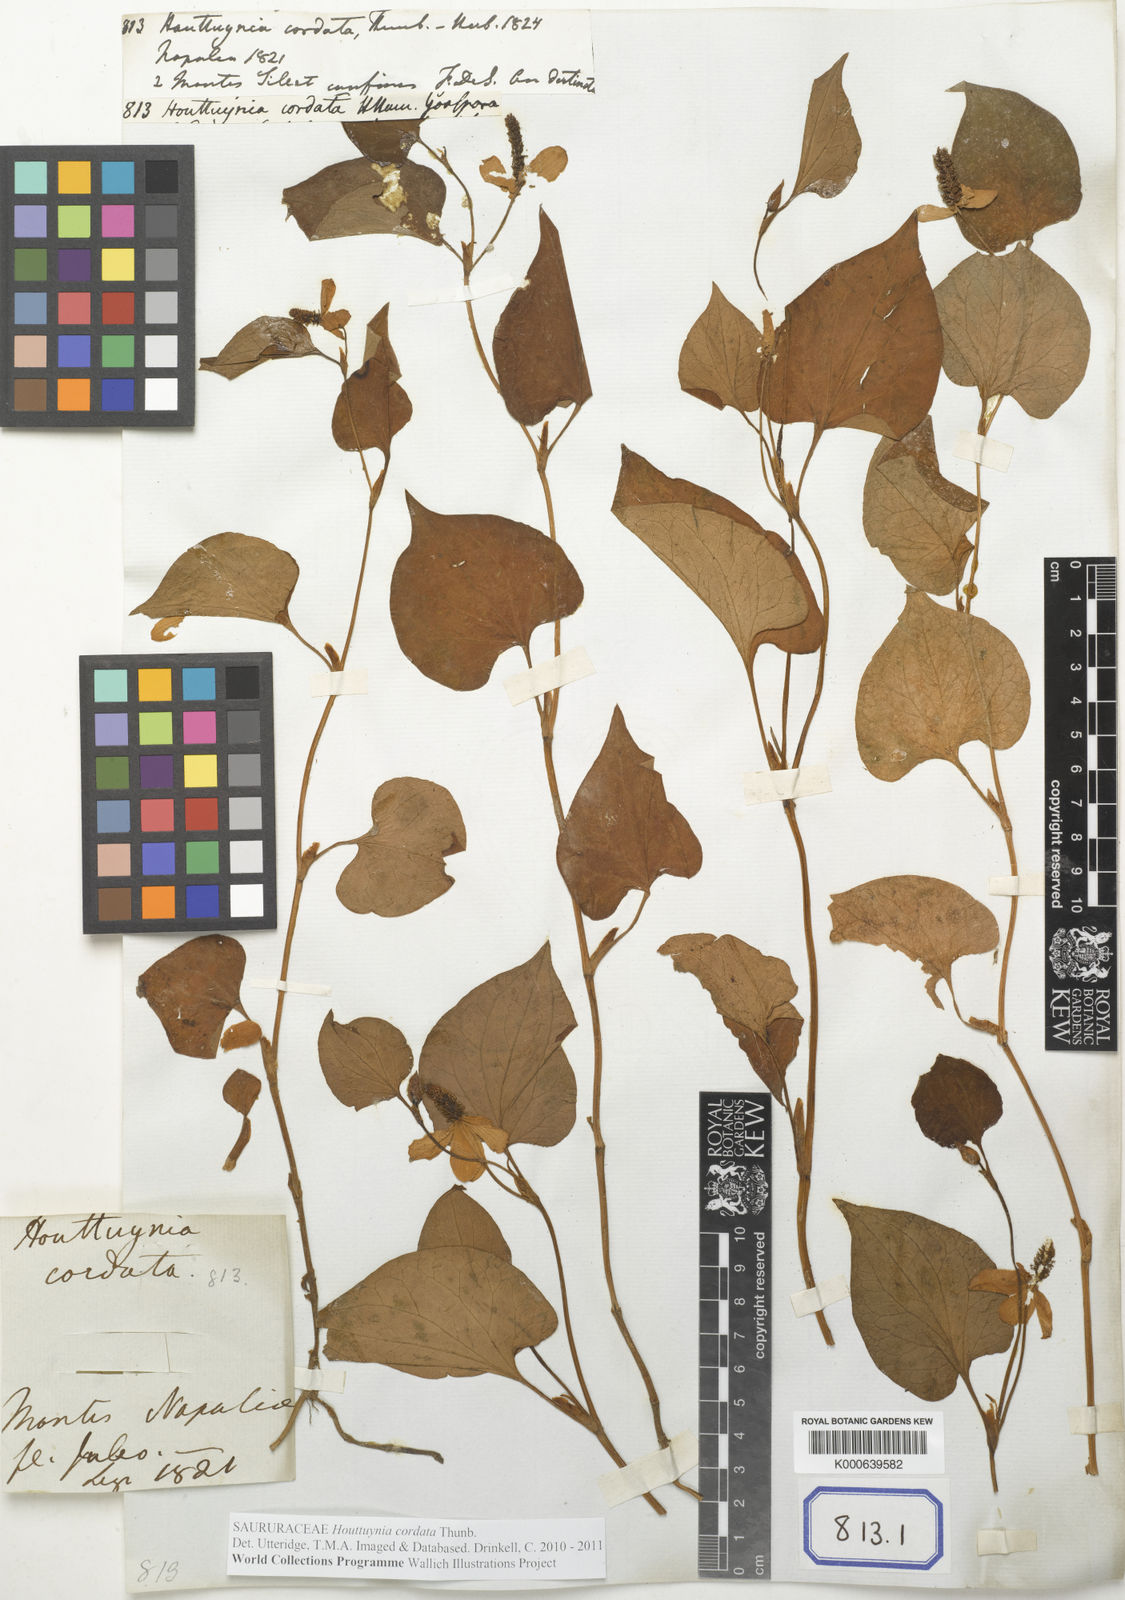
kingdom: Plantae
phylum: Tracheophyta
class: Magnoliopsida
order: Piperales
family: Saururaceae
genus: Houttuynia
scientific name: Houttuynia cordata
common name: Chameleon
